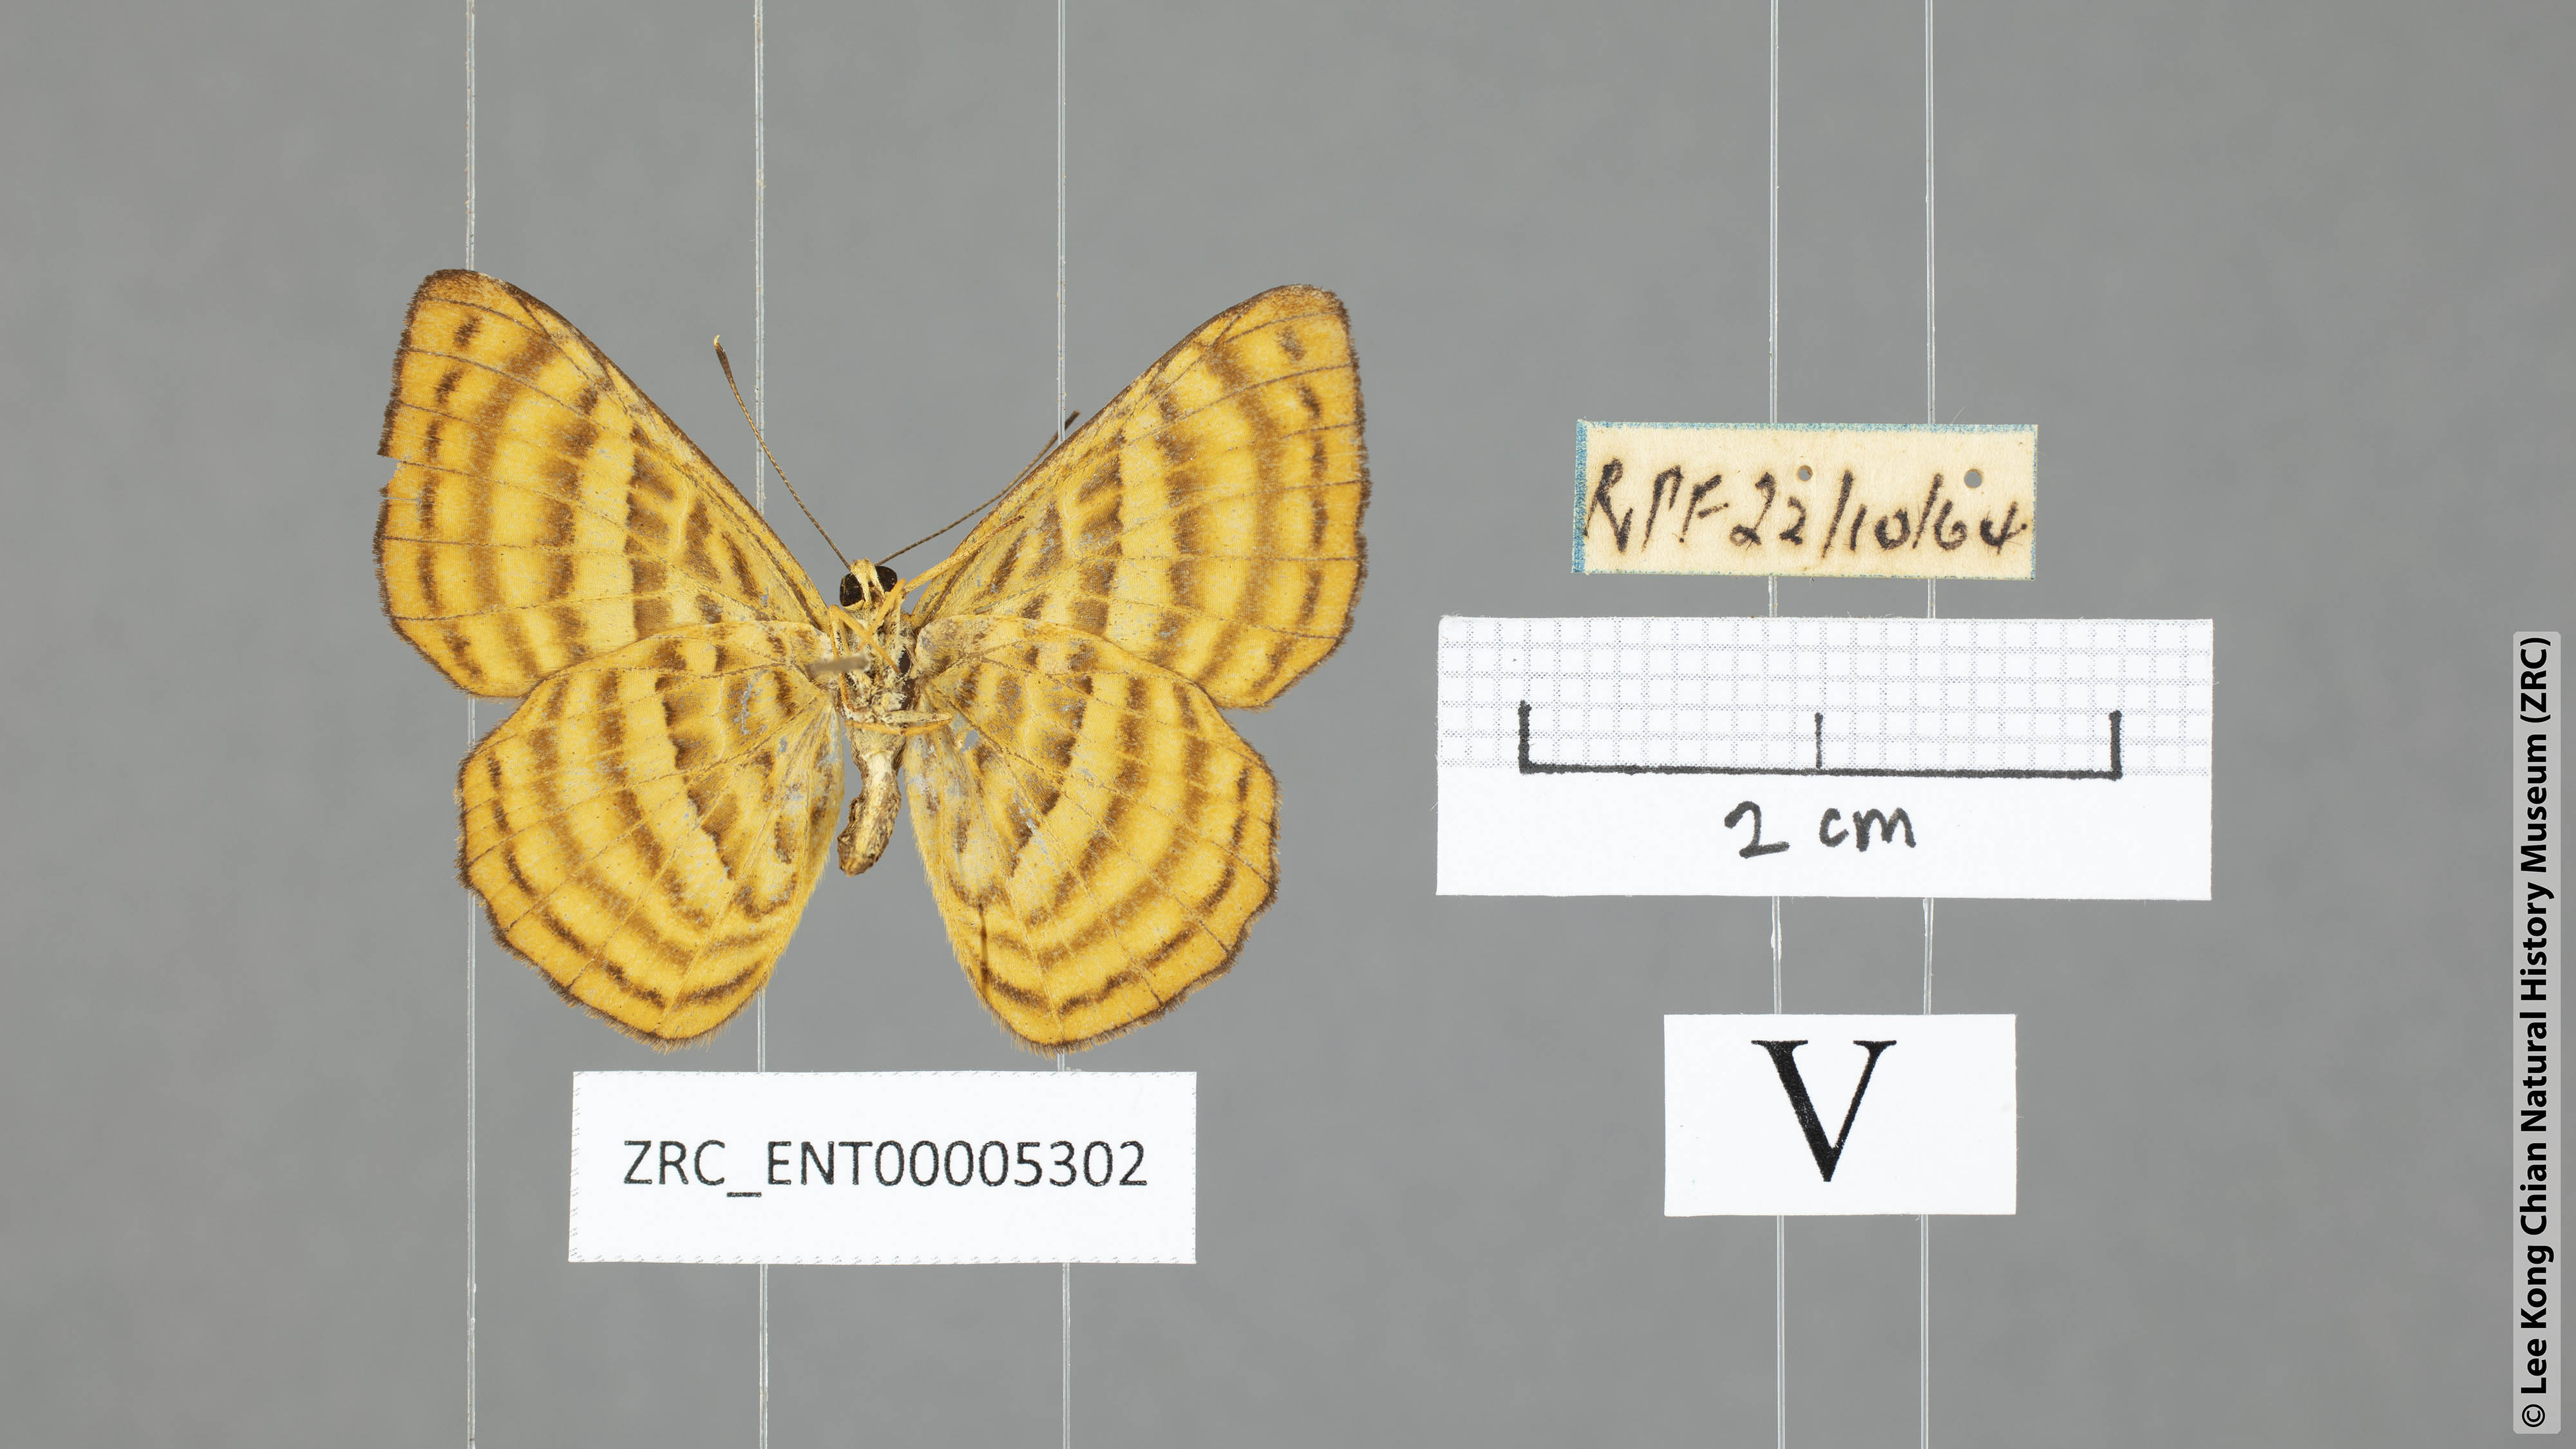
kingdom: Animalia
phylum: Arthropoda
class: Insecta
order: Lepidoptera
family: Riodinidae
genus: Zemeros
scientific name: Zemeros emesoides
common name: Malay punchinello
